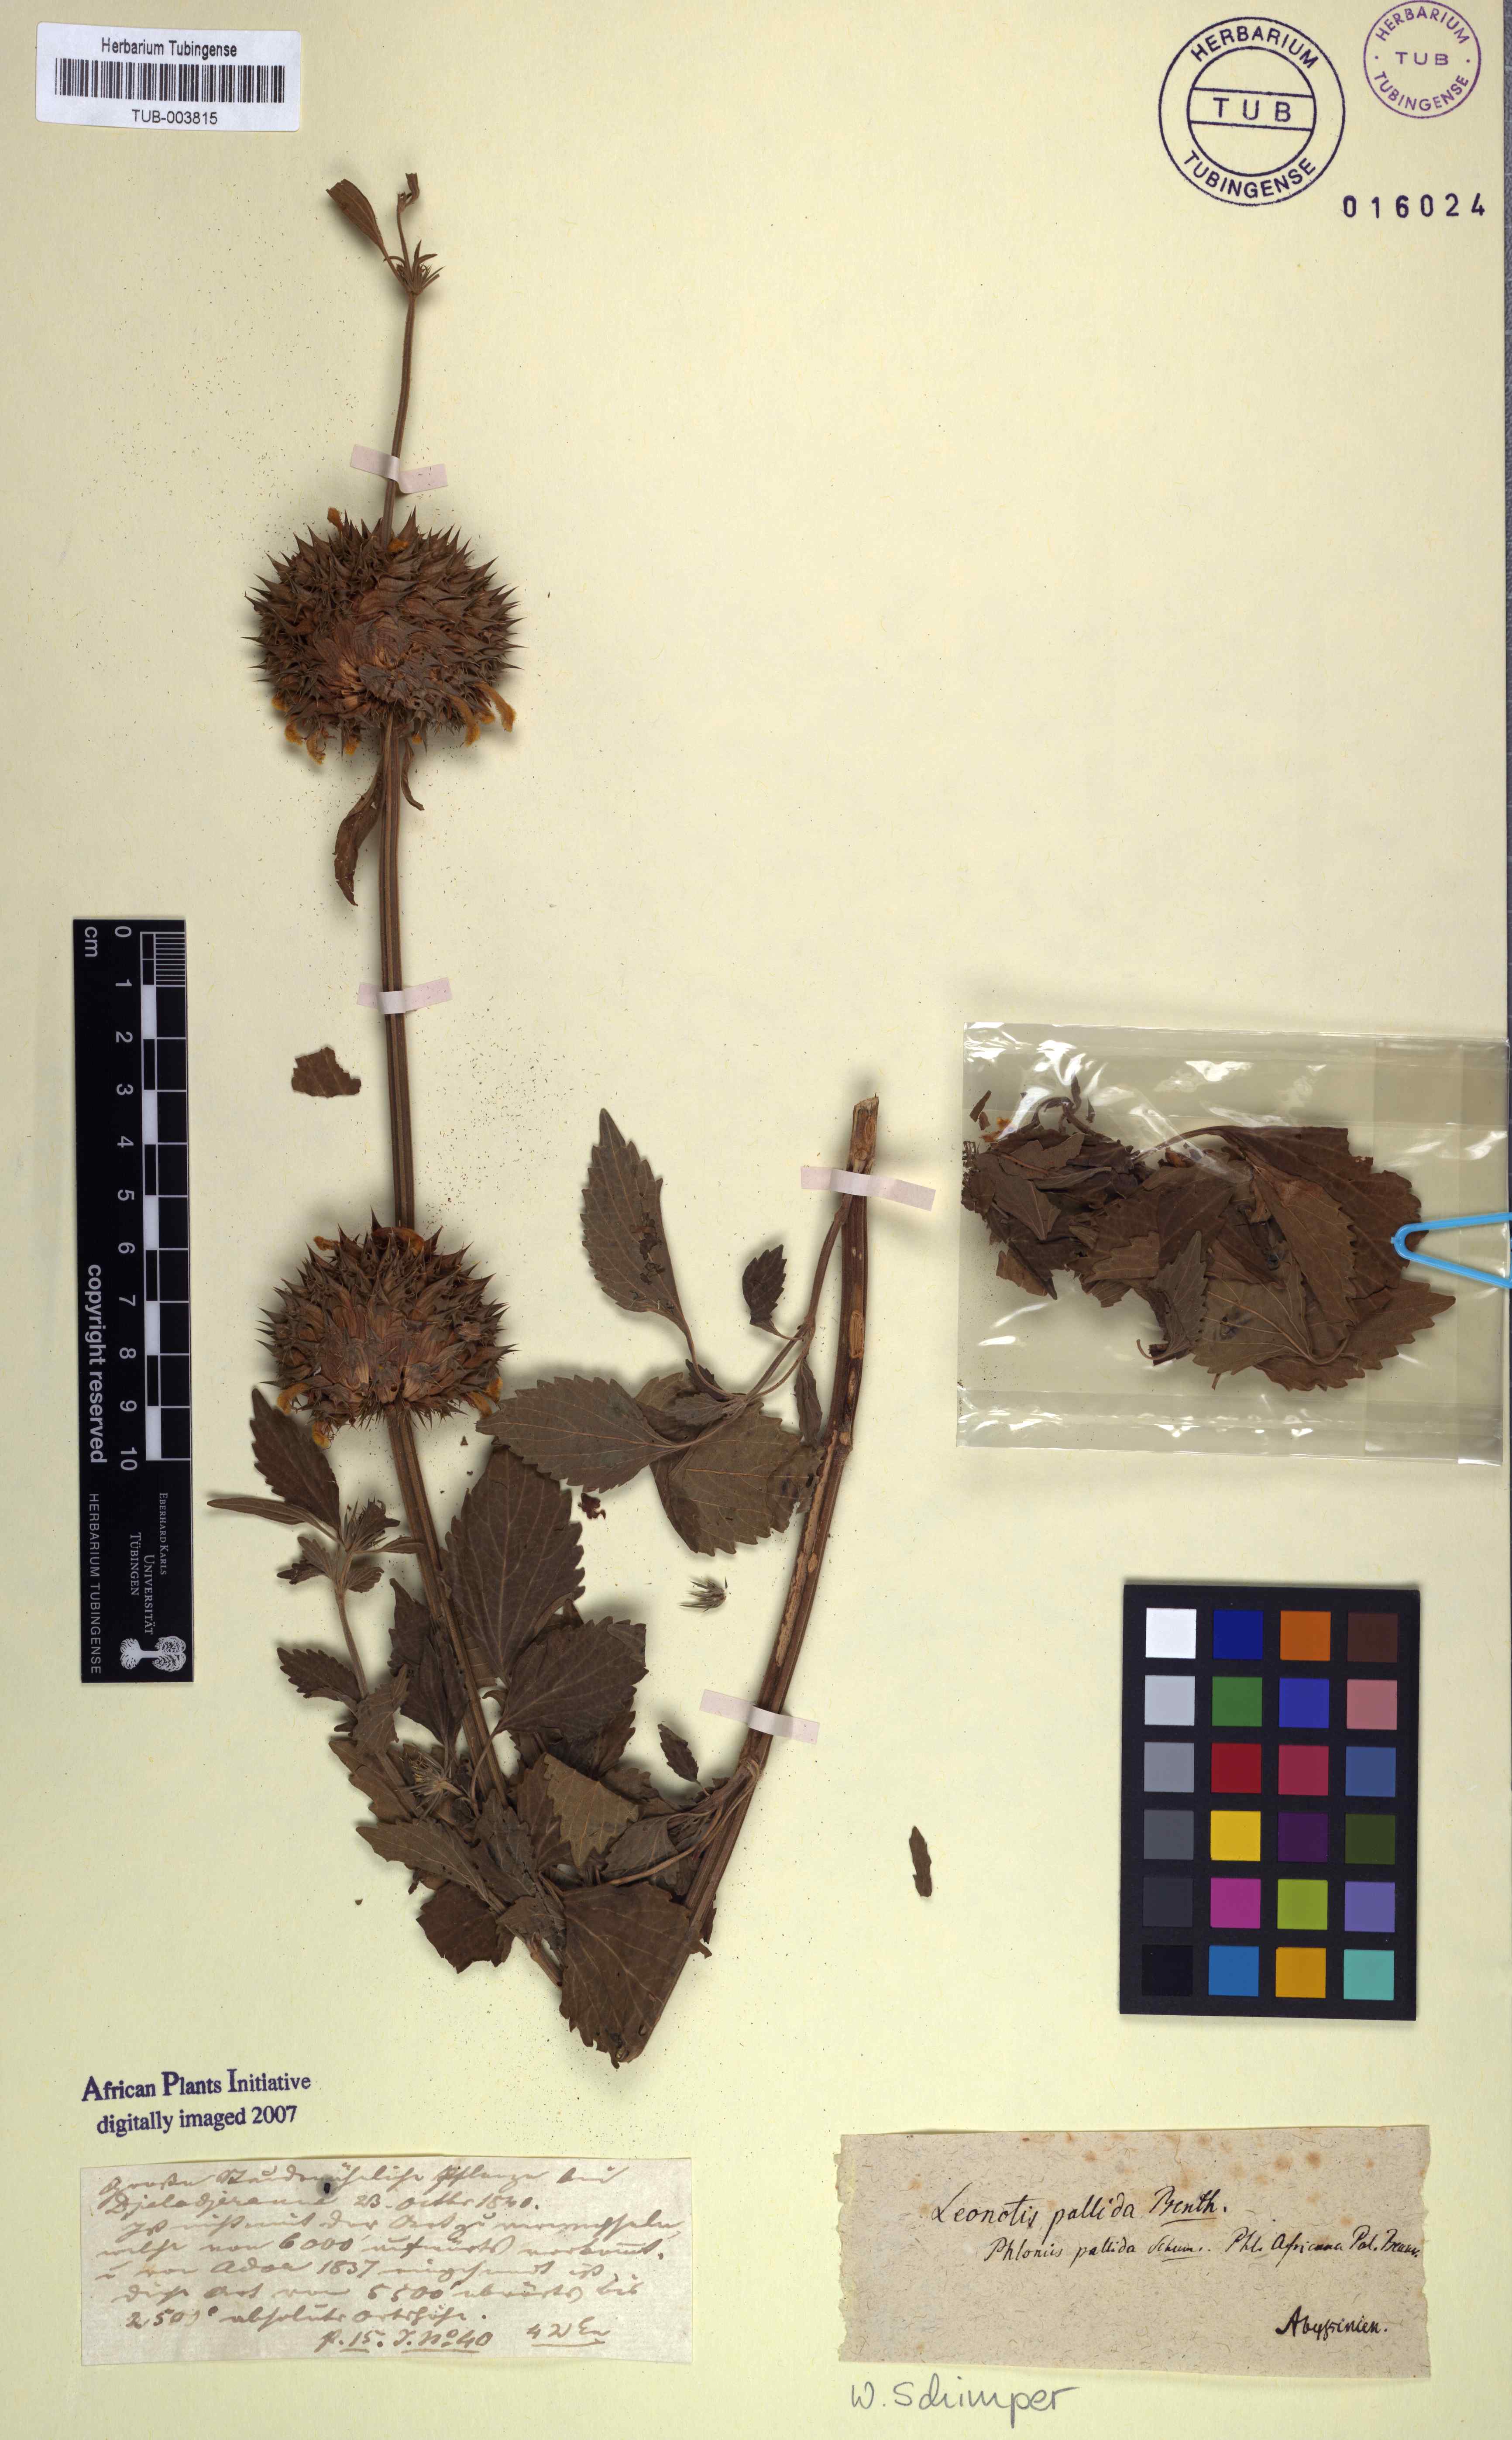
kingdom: Plantae
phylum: Tracheophyta
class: Magnoliopsida
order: Lamiales
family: Lamiaceae
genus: Leonotis
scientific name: Leonotis nepetifolia
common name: Christmas candlestick
